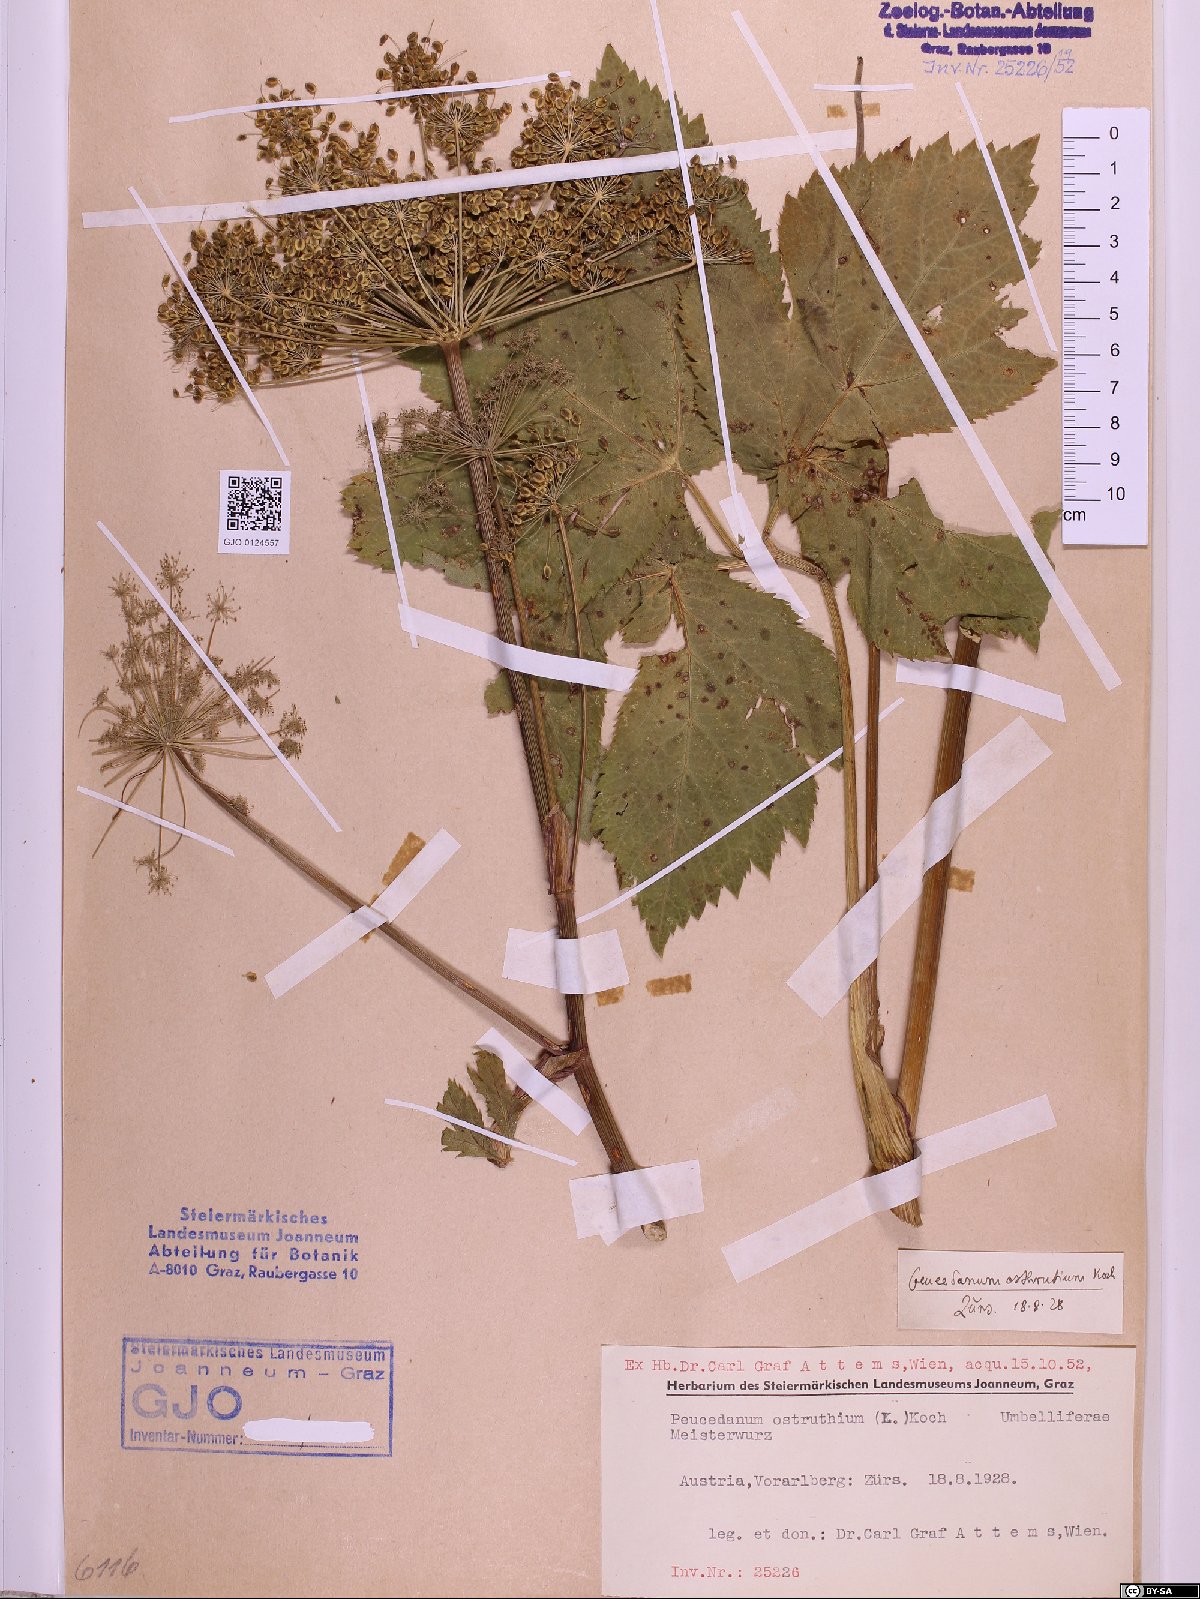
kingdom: Plantae
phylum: Tracheophyta
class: Magnoliopsida
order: Apiales
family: Apiaceae
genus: Imperatoria
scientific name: Imperatoria ostruthium
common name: Masterwort
